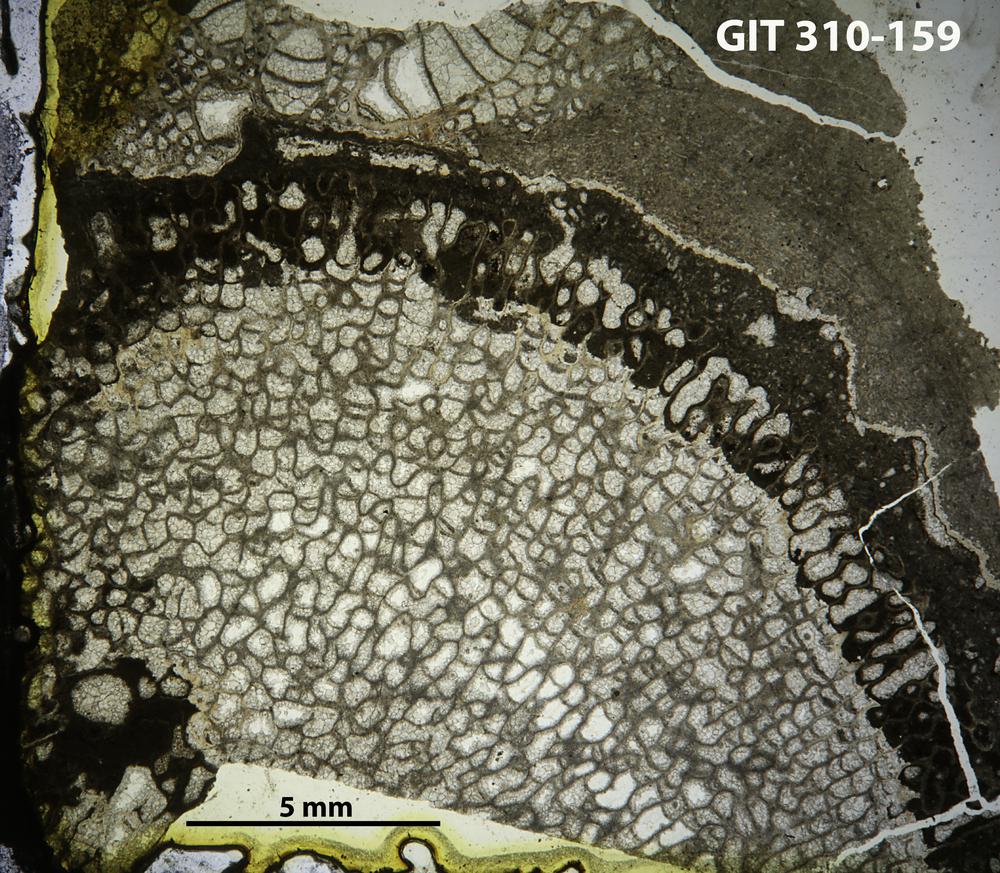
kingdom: Animalia
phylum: Porifera
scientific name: Porifera
